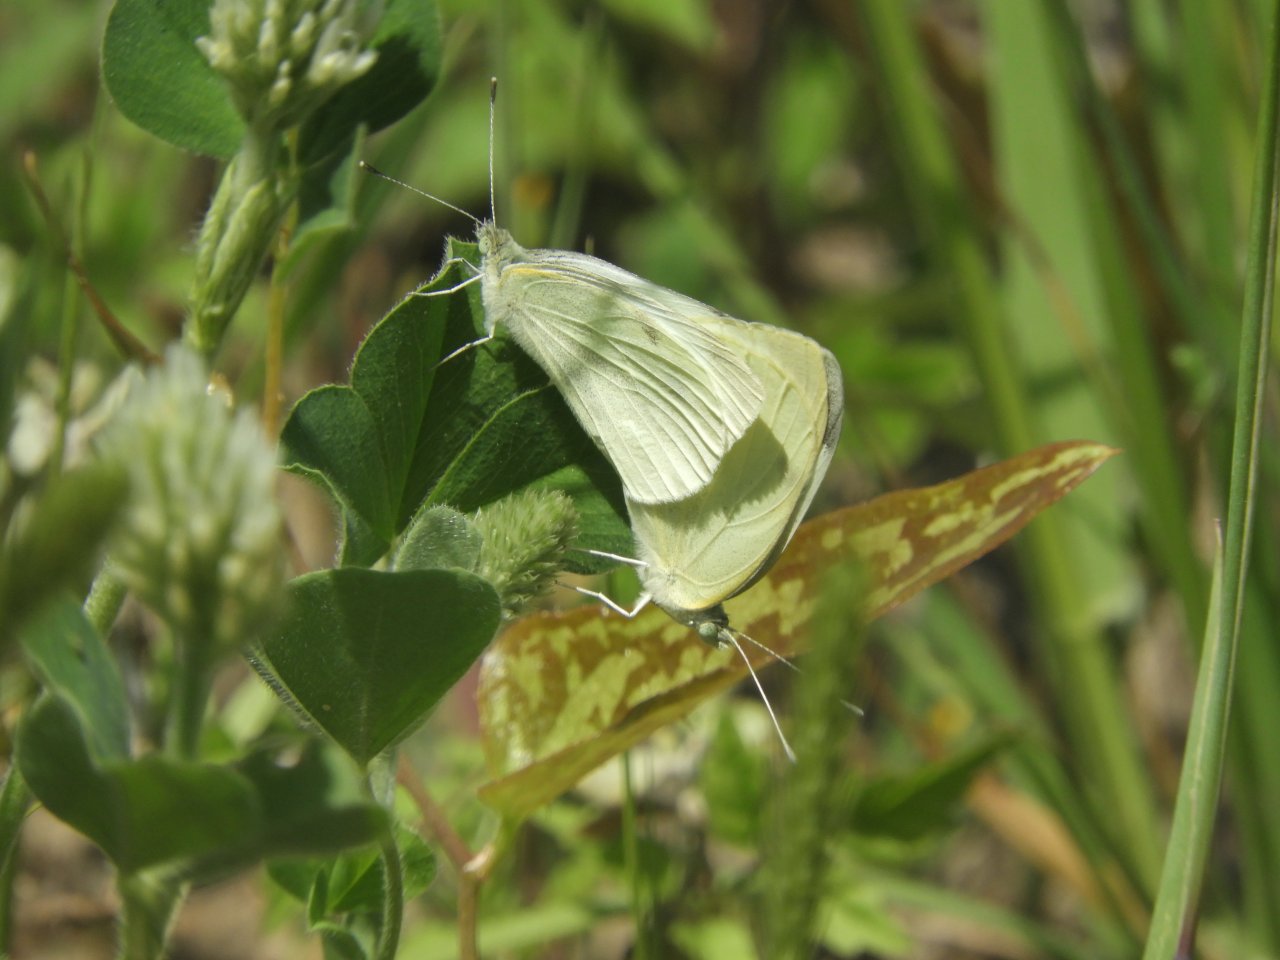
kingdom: Animalia
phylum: Arthropoda
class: Insecta
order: Lepidoptera
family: Pieridae
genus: Pieris
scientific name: Pieris rapae
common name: Cabbage White
